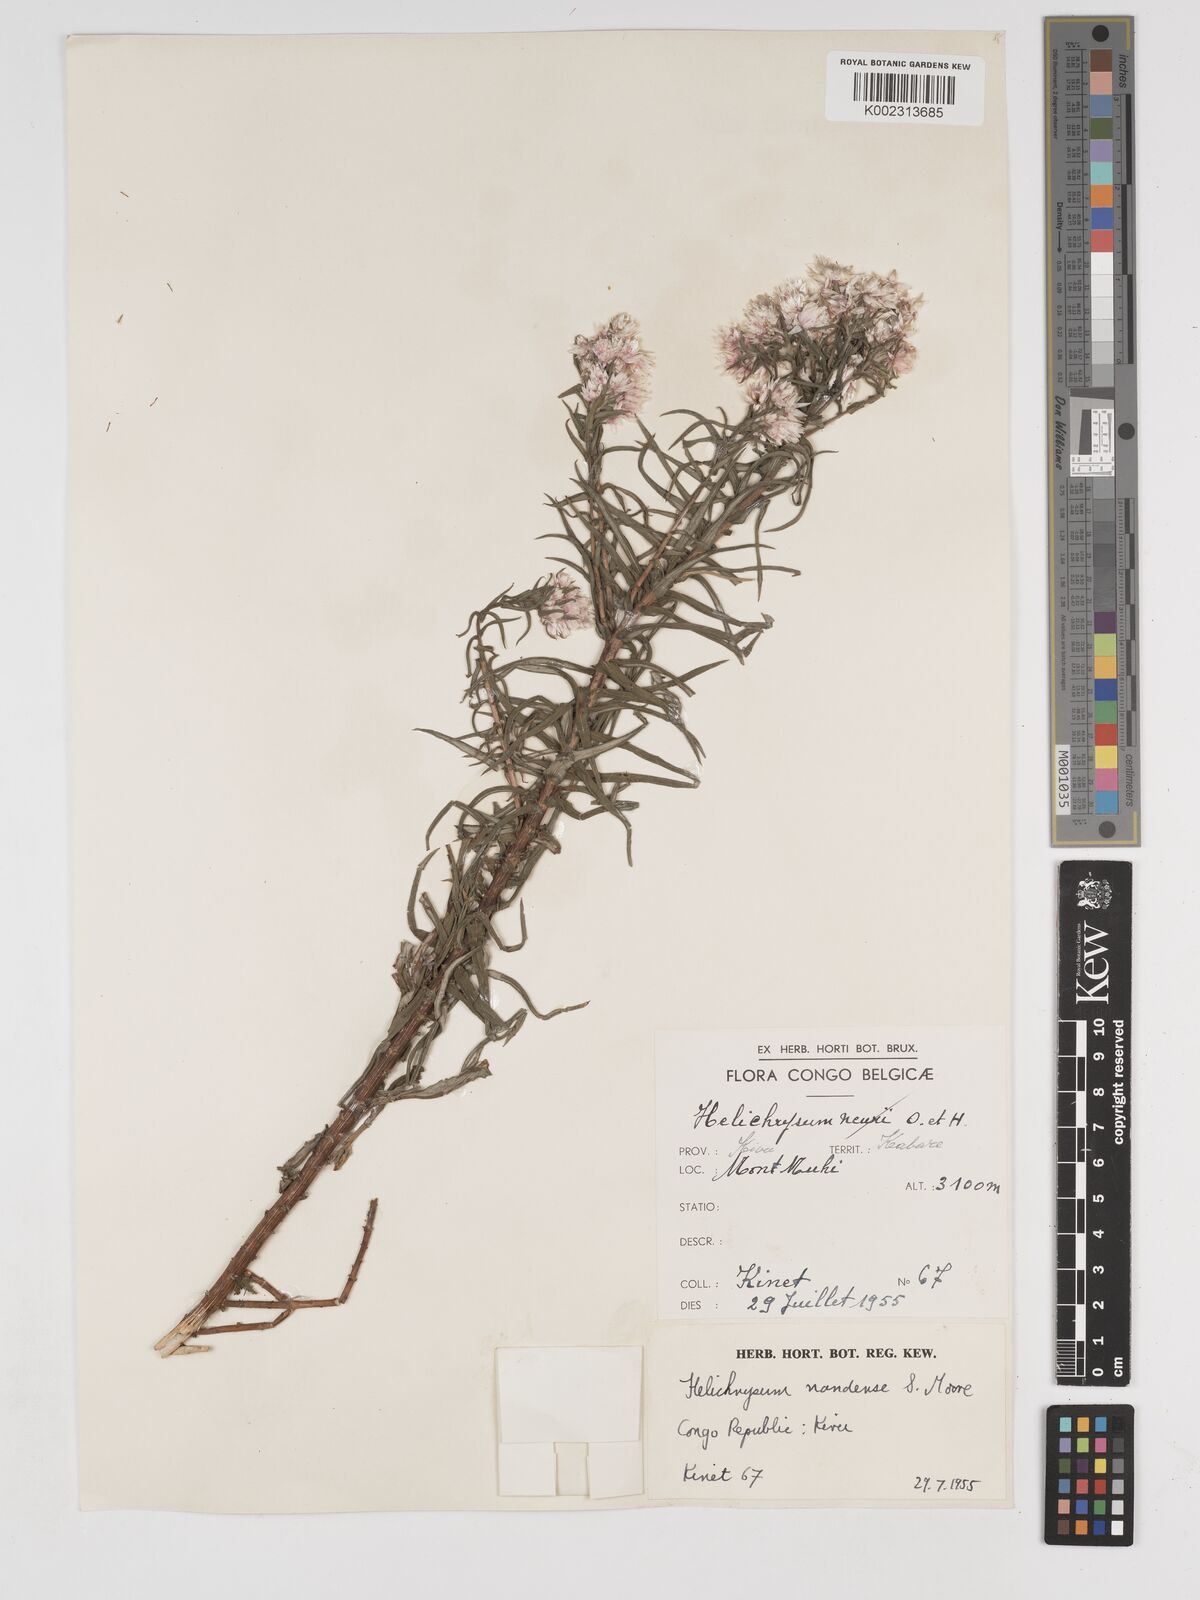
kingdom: Plantae
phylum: Tracheophyta
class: Magnoliopsida
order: Asterales
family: Asteraceae
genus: Helichrysum
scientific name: Helichrysum argyranthum
